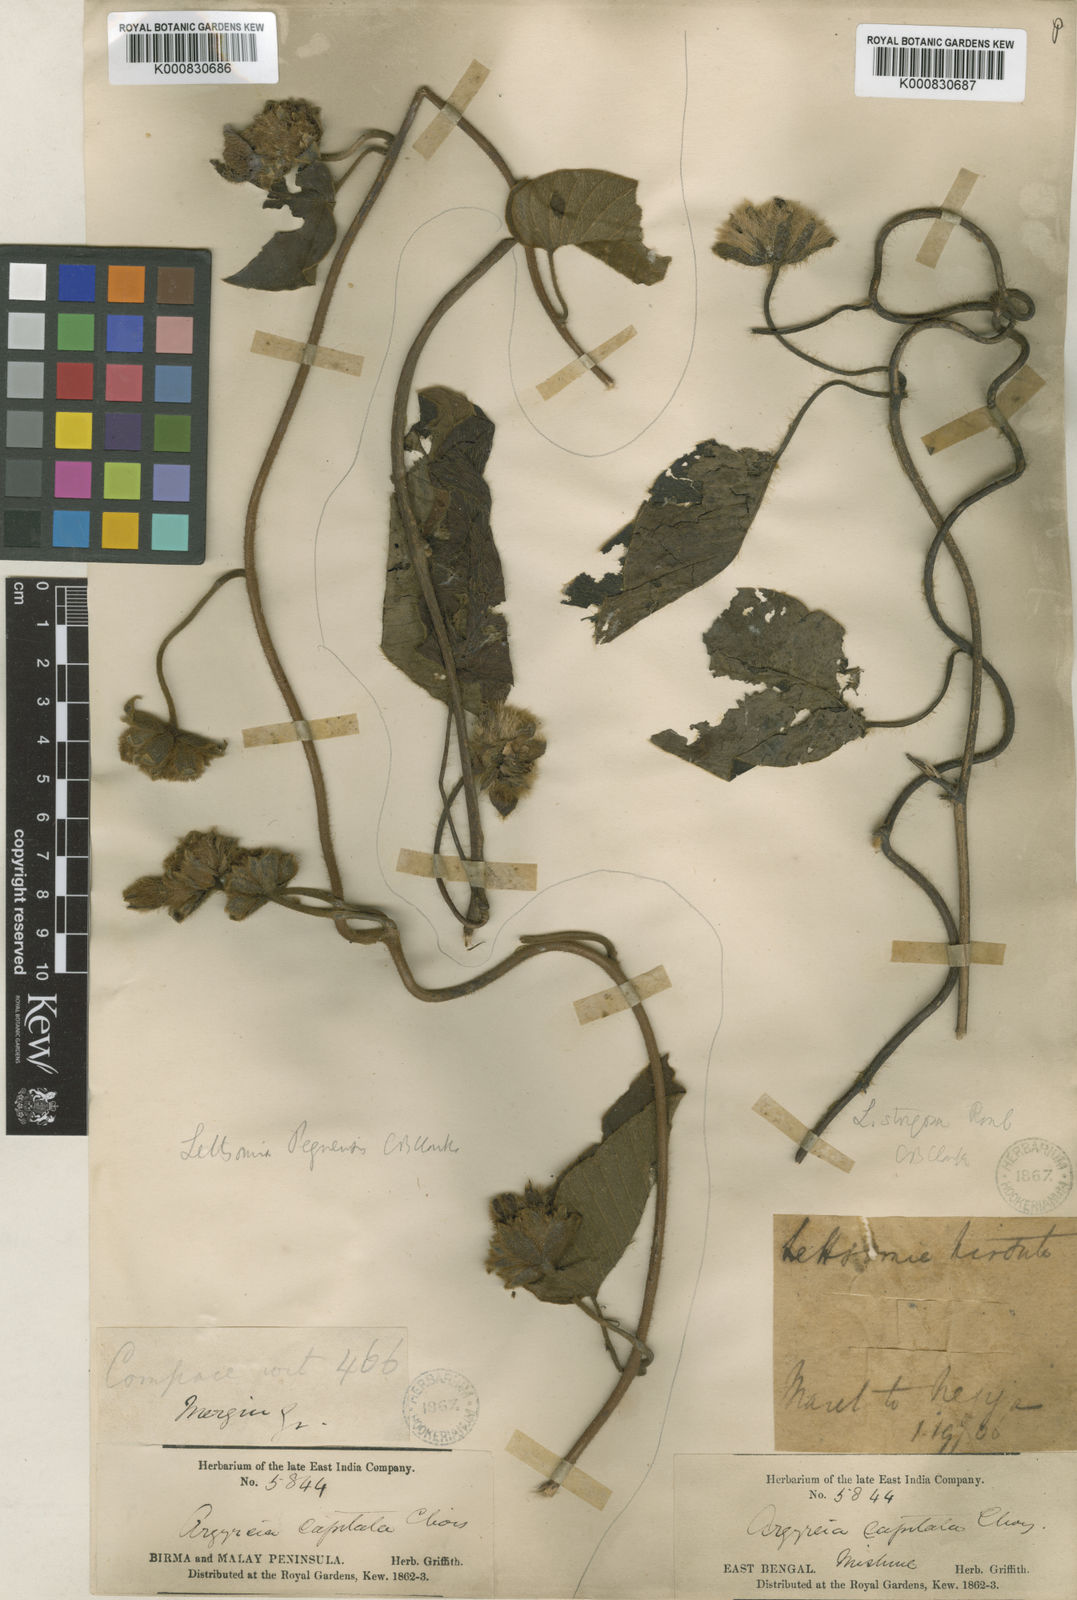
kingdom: Plantae
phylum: Tracheophyta
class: Magnoliopsida
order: Solanales
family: Convolvulaceae
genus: Argyreia
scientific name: Argyreia
